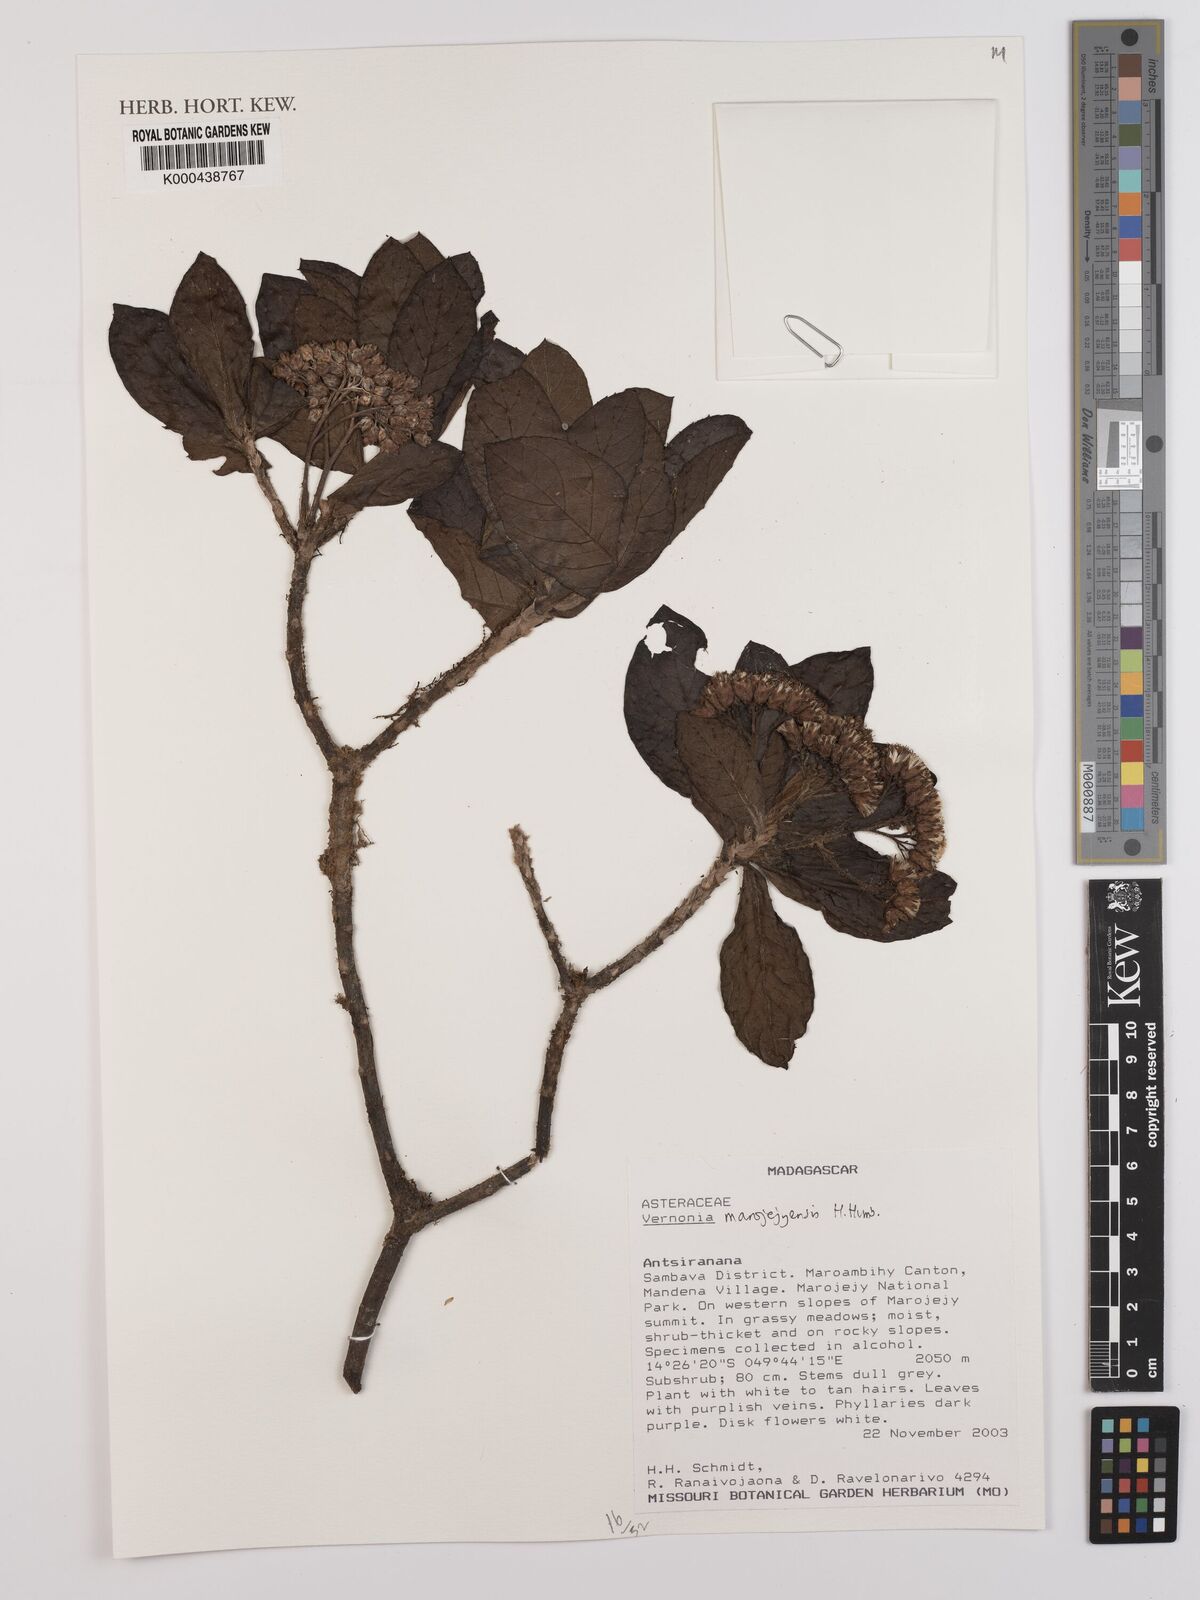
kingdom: Plantae
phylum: Tracheophyta
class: Magnoliopsida
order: Asterales
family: Asteraceae
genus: Vernonia
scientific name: Vernonia marojejyensis
